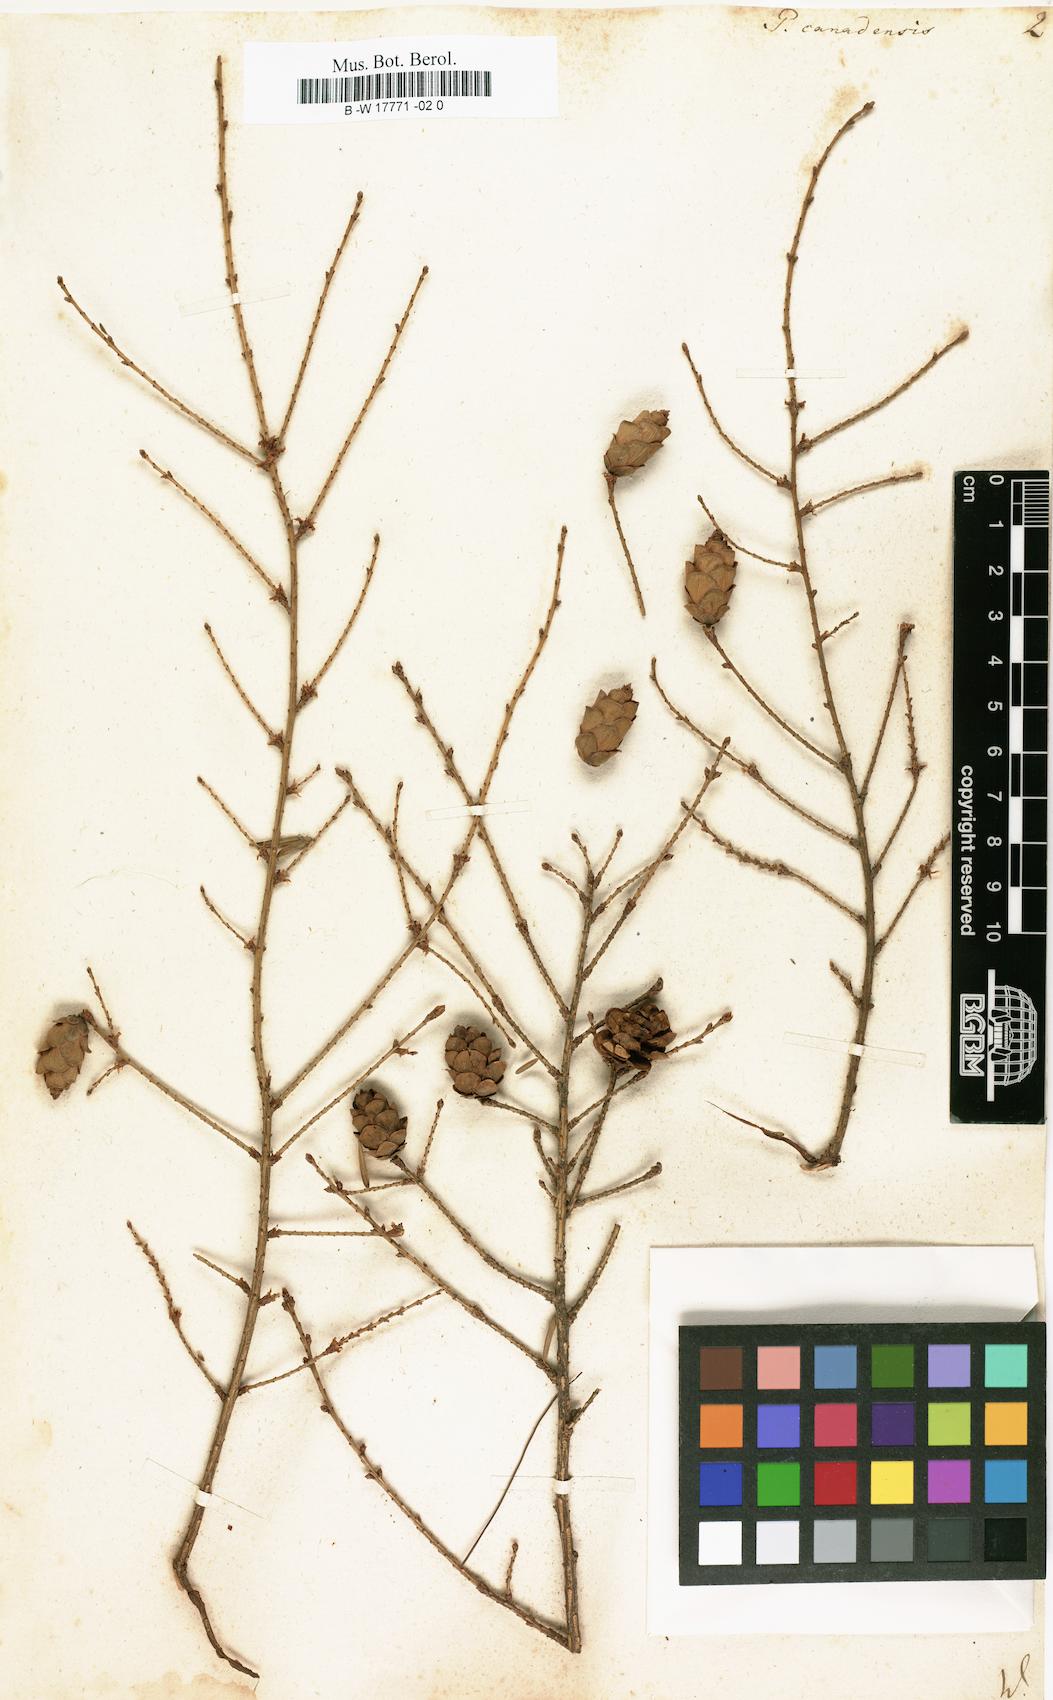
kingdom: Plantae
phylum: Tracheophyta
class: Pinopsida
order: Pinales
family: Pinaceae
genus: Tsuga
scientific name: Tsuga canadensis
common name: Eastern hemlock
